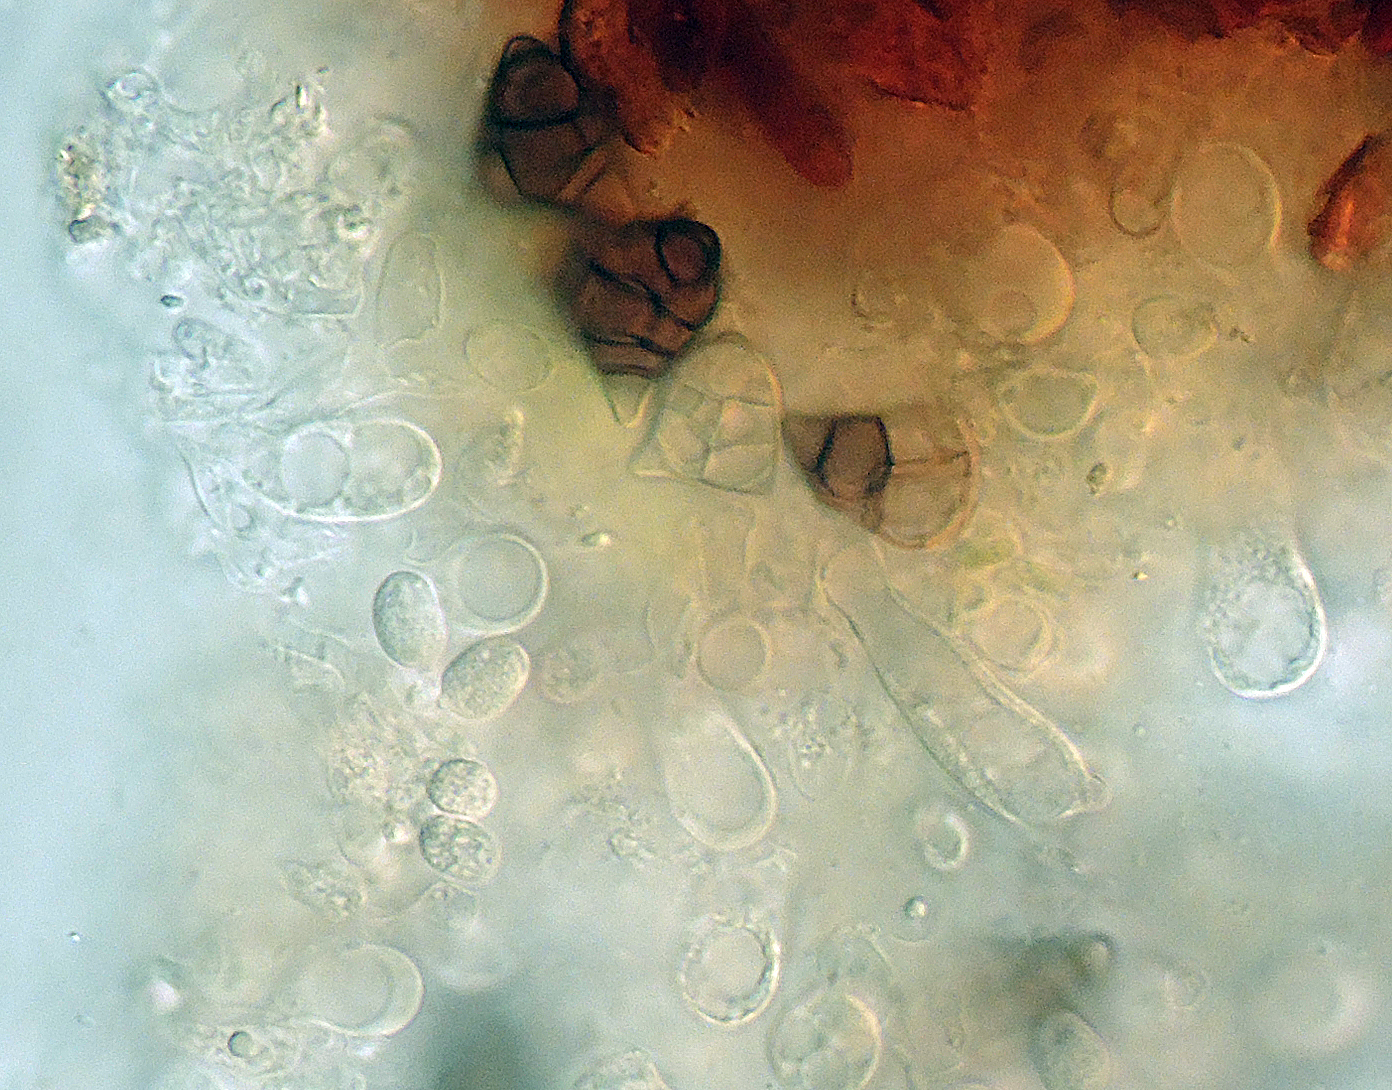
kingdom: Fungi
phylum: Basidiomycota
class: Agaricomycetes
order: Corticiales
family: Corticiaceae
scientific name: Corticiaceae
